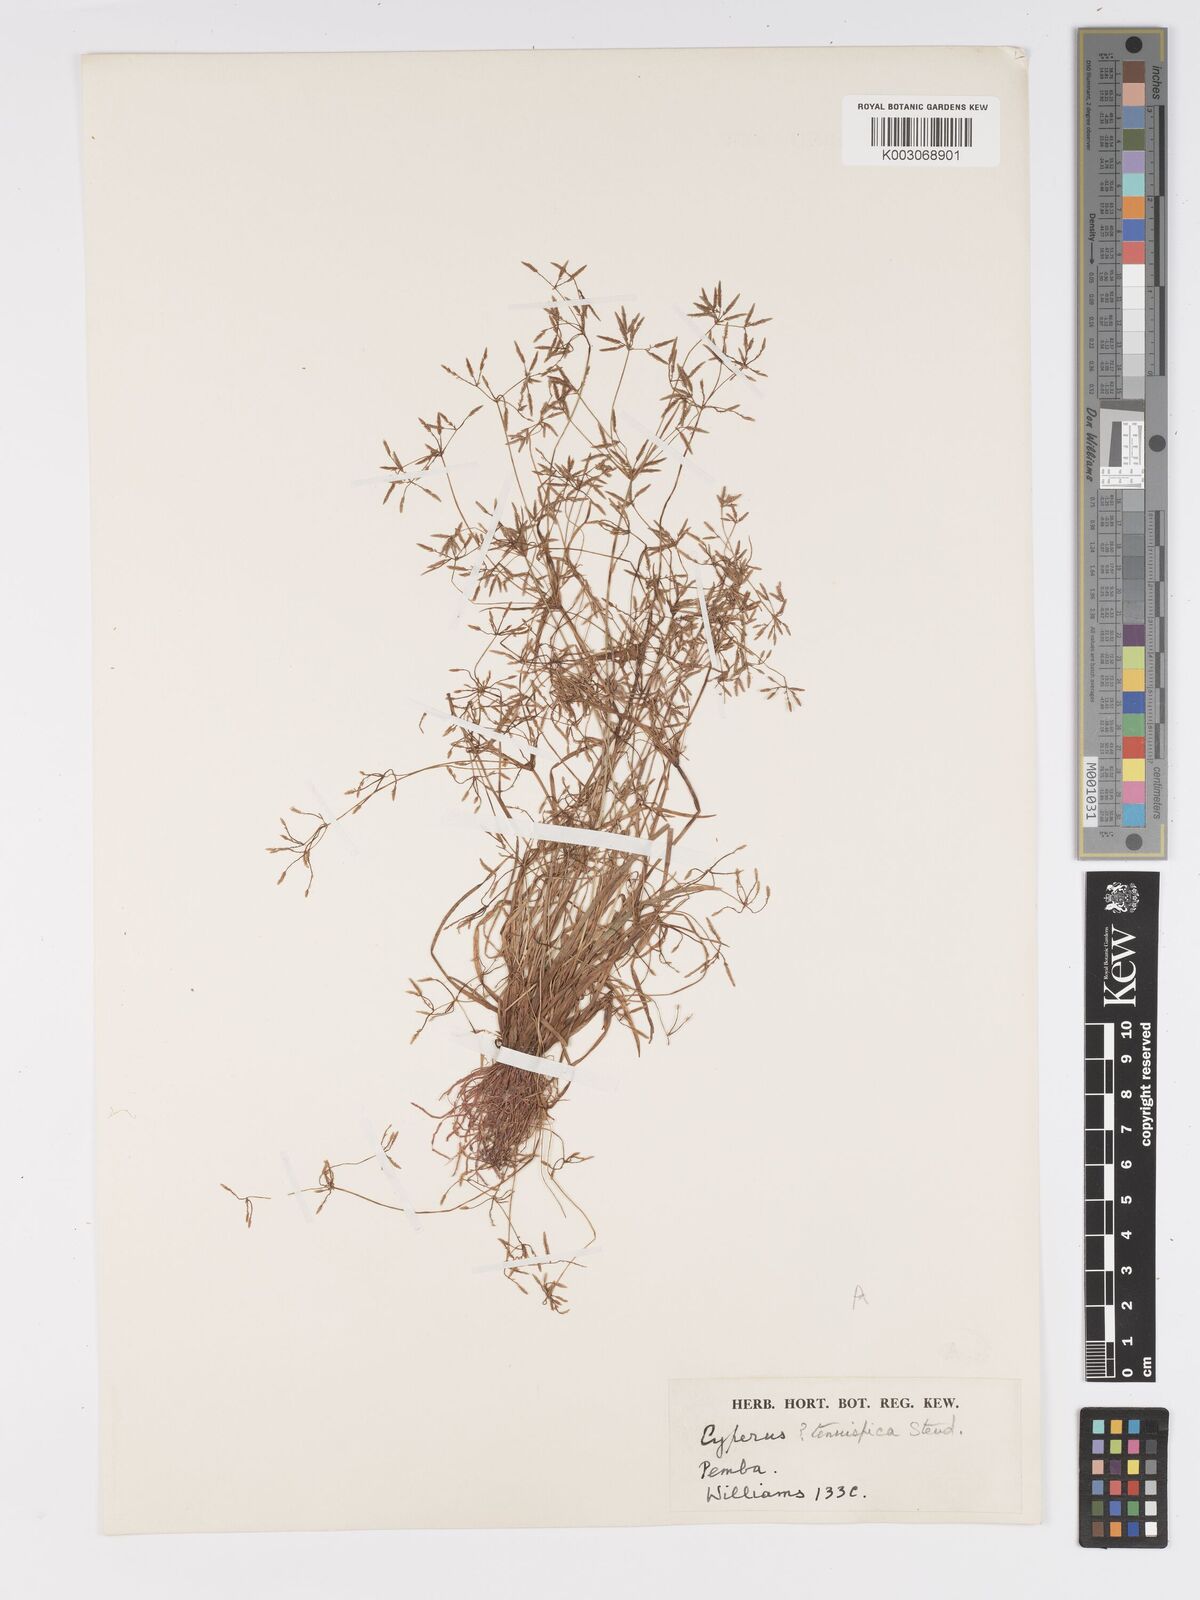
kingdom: Plantae
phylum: Tracheophyta
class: Liliopsida
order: Poales
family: Cyperaceae
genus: Cyperus
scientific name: Cyperus tenuispica
